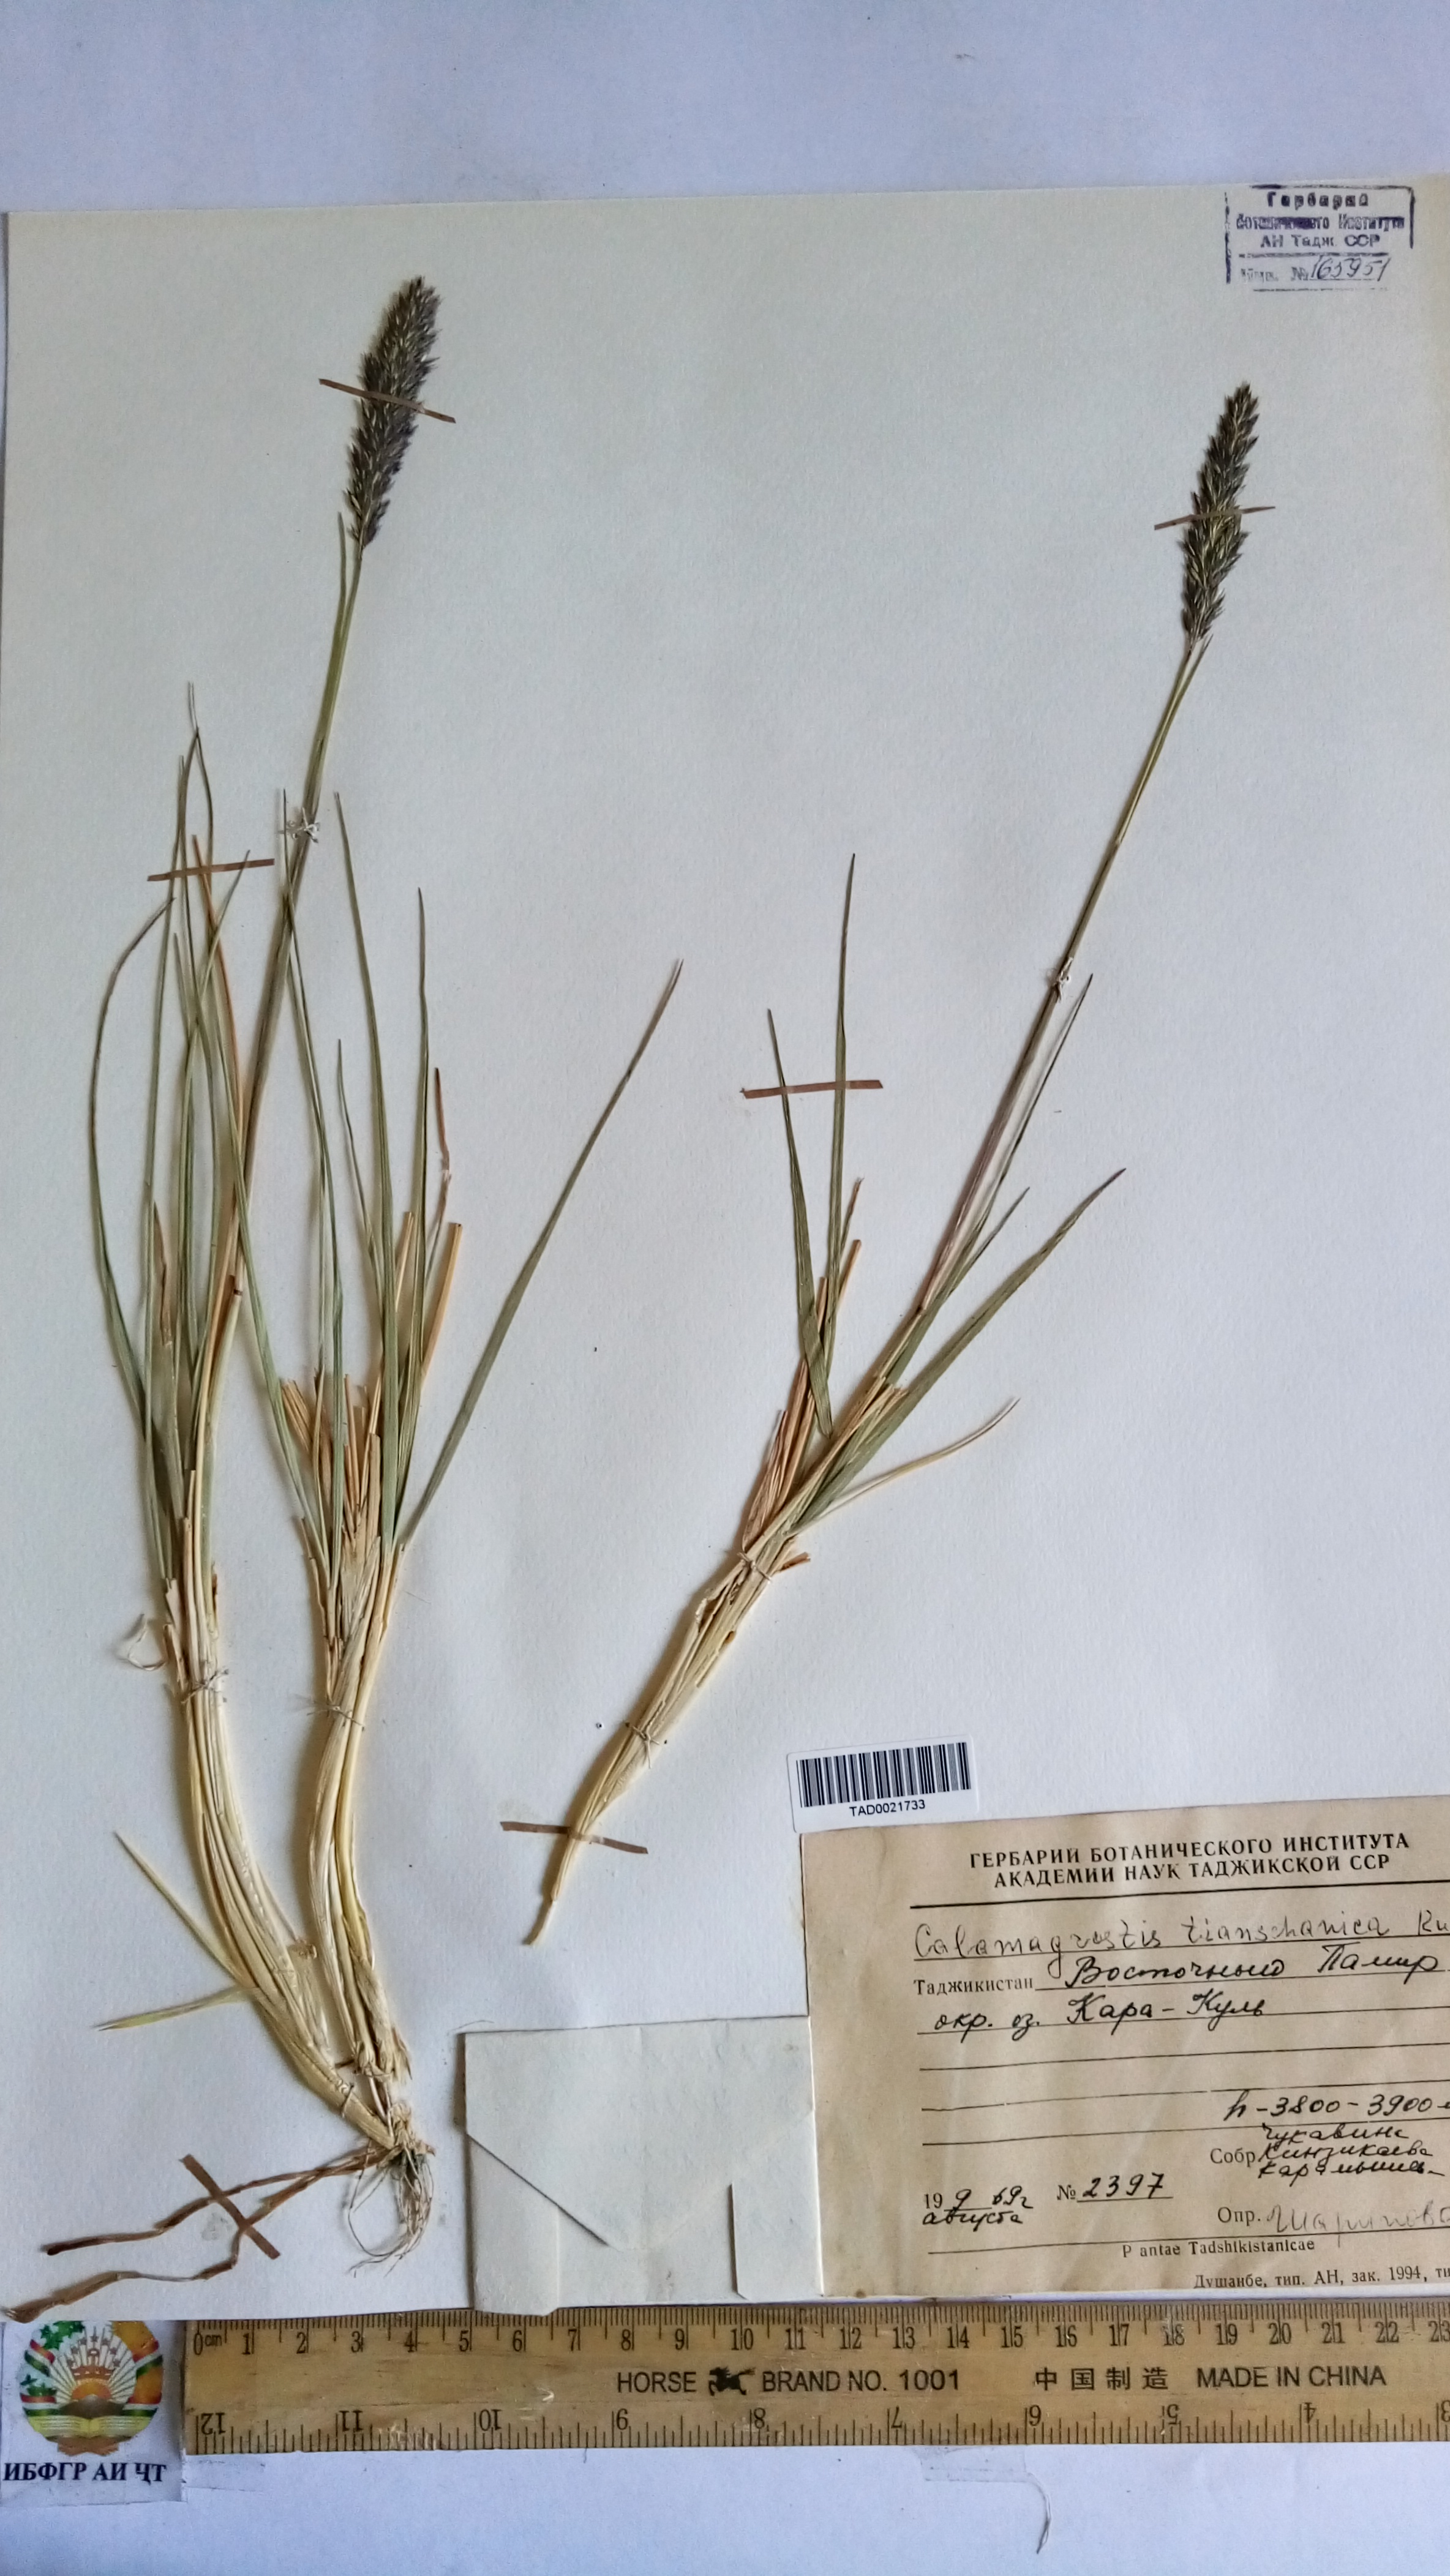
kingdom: Plantae
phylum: Tracheophyta
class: Liliopsida
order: Poales
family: Poaceae
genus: Calamagrostis
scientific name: Calamagrostis tianschanica
